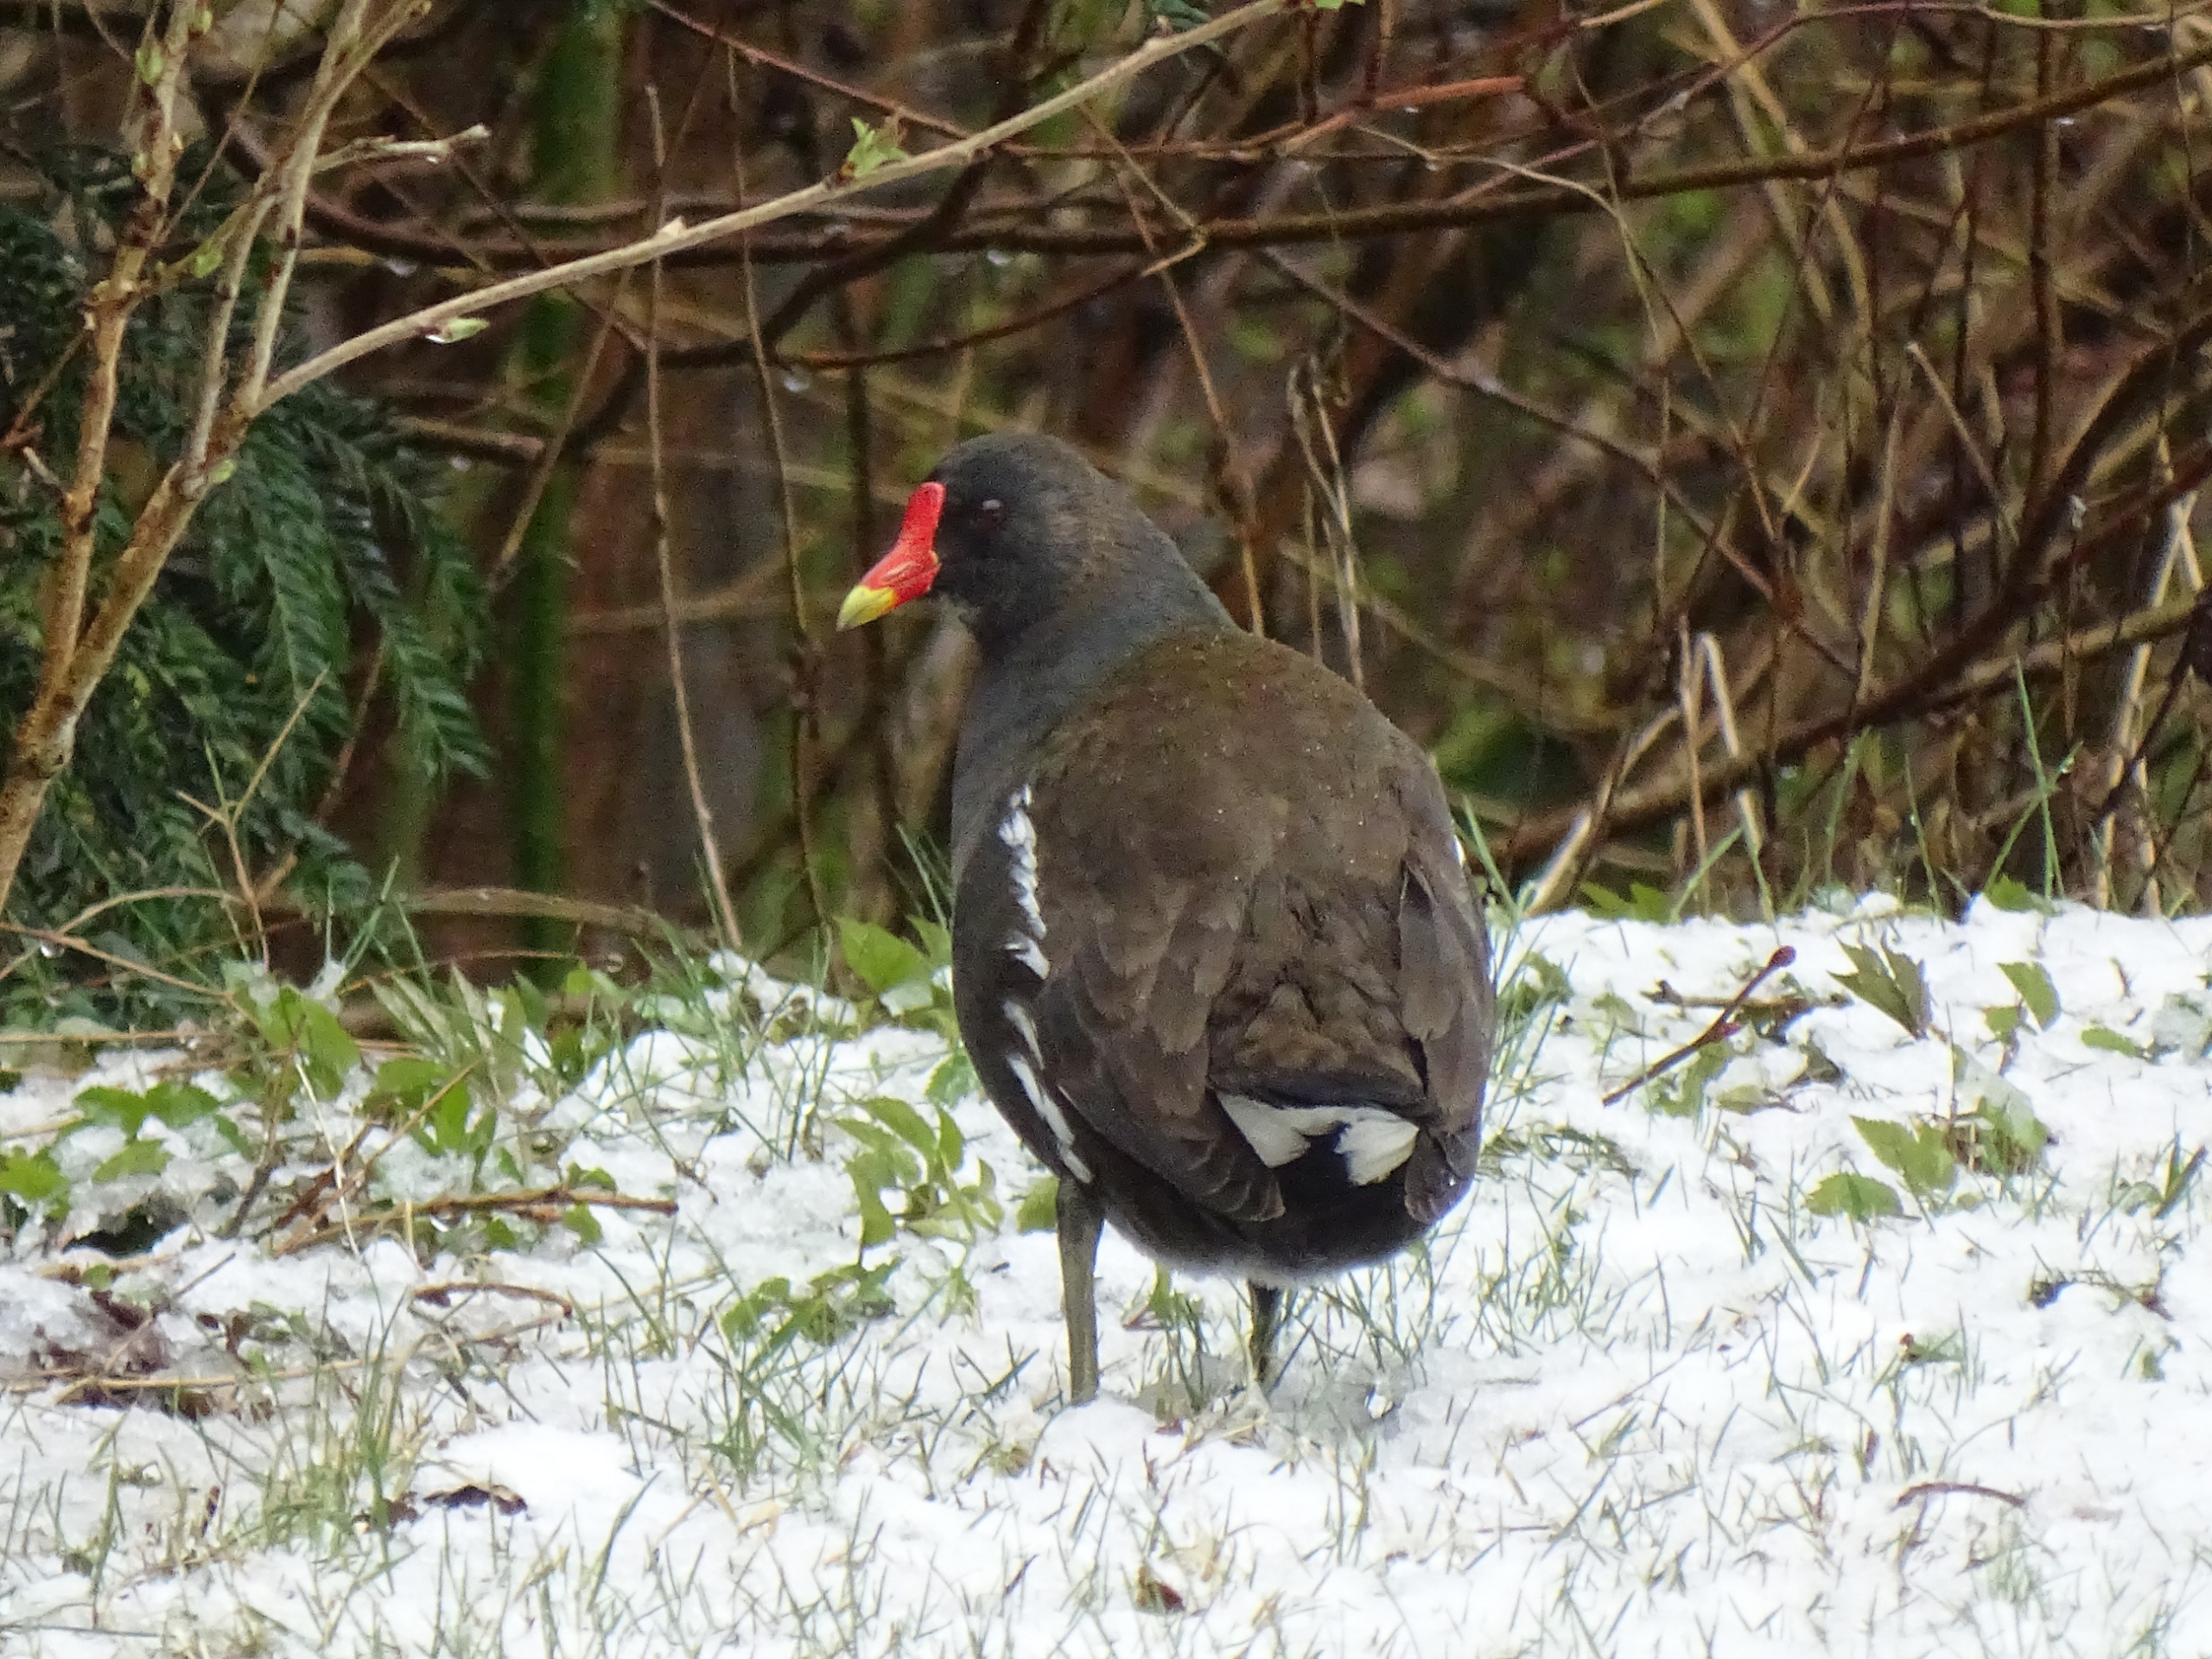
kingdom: Animalia
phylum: Chordata
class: Aves
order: Gruiformes
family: Rallidae
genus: Gallinula
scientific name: Gallinula chloropus
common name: Grønbenet rørhøne
